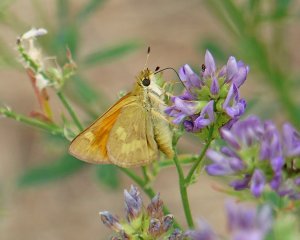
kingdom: Animalia
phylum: Arthropoda
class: Insecta
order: Lepidoptera
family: Hesperiidae
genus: Ochlodes
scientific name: Ochlodes sylvanoides
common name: Woodland Skipper
